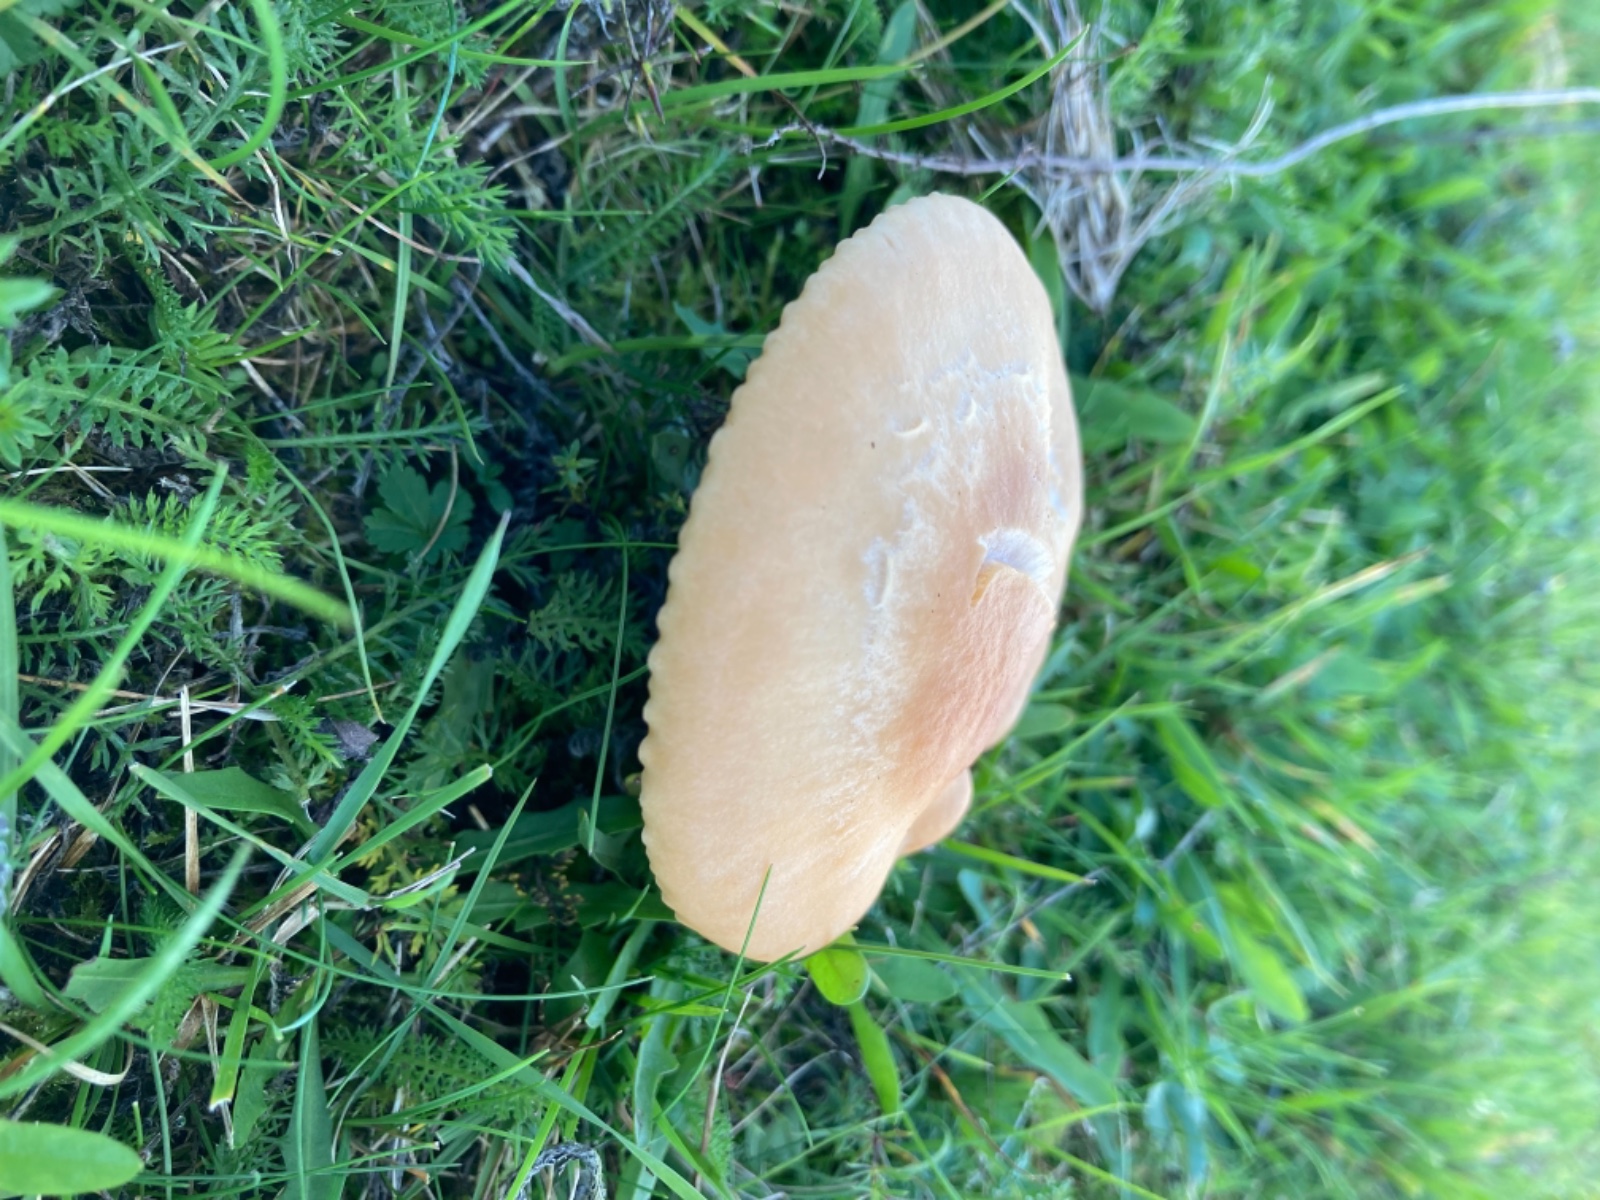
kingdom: Fungi
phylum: Basidiomycota
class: Agaricomycetes
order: Agaricales
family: Hygrophoraceae
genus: Cuphophyllus
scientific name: Cuphophyllus pratensis
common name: eng-vokshat
